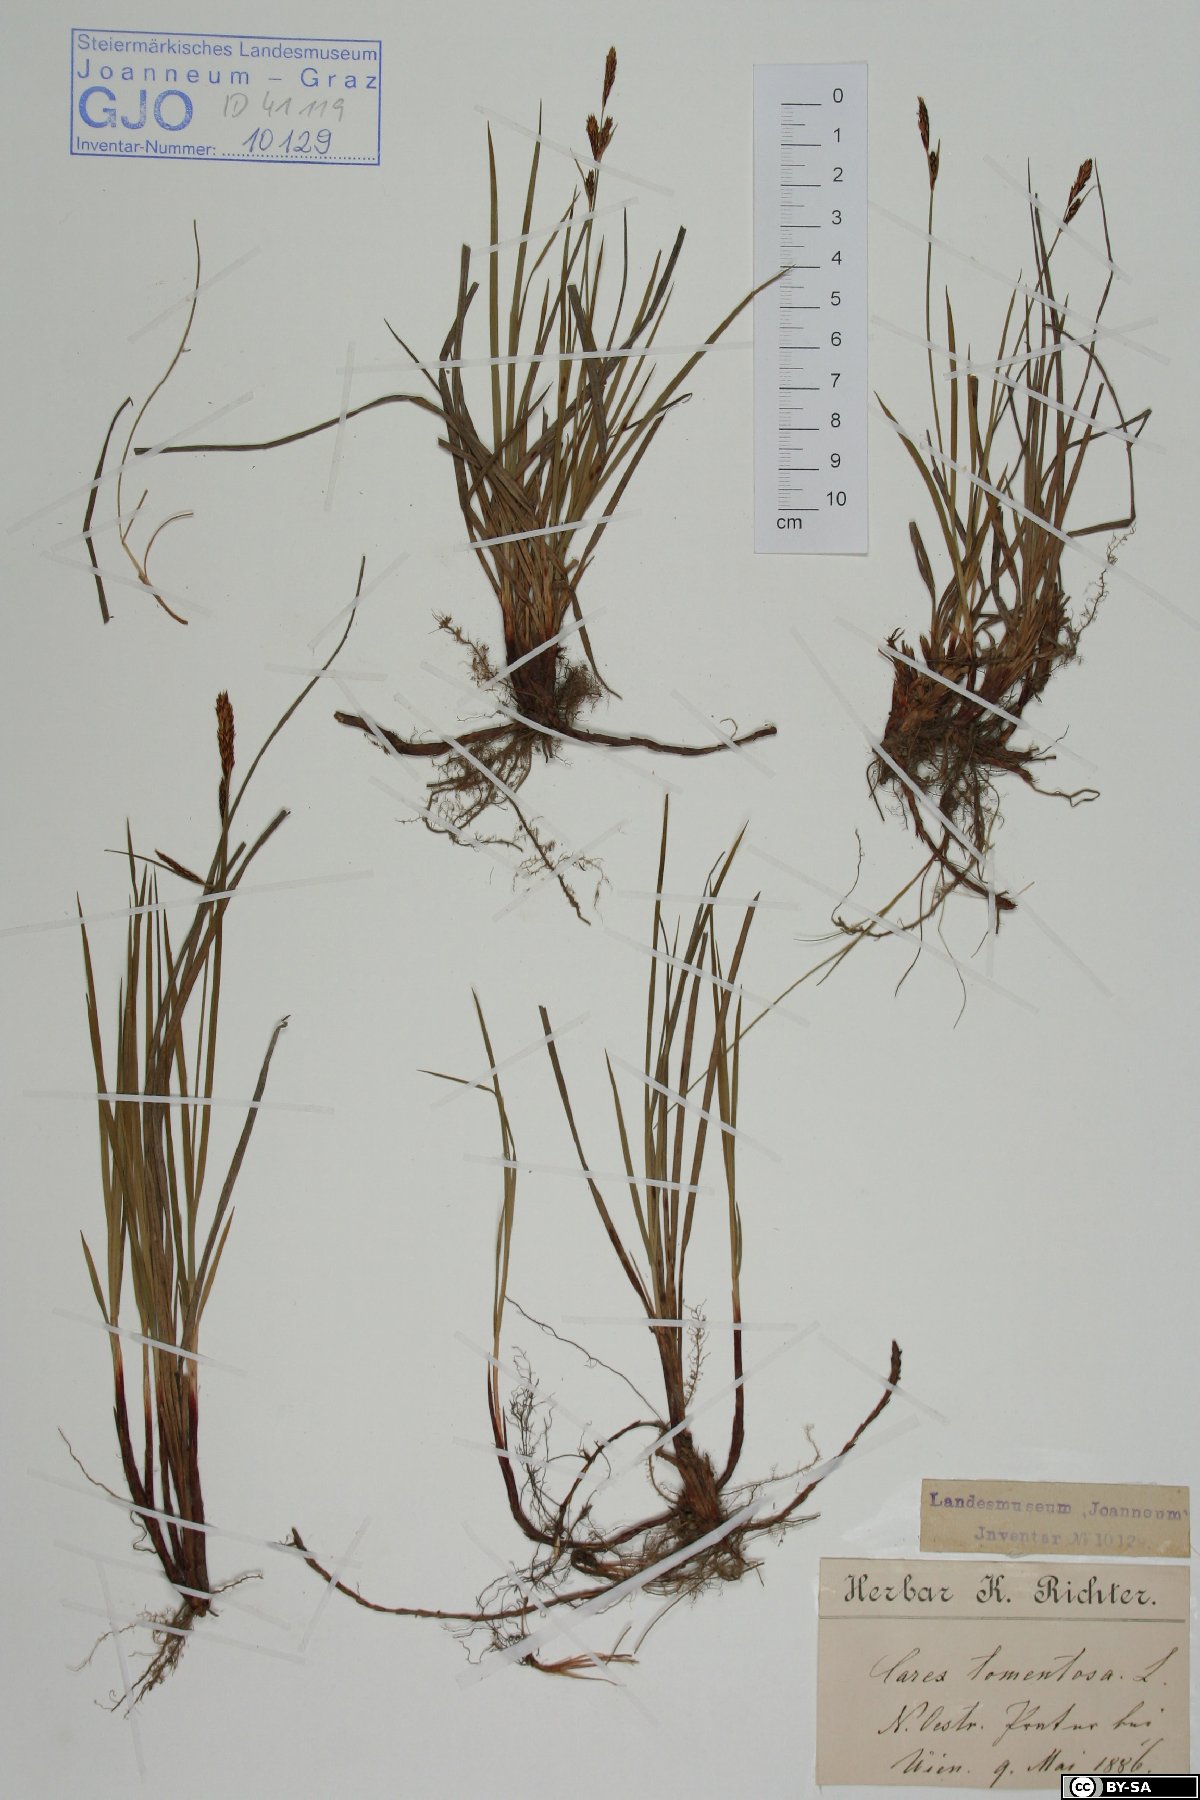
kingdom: Plantae
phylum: Tracheophyta
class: Liliopsida
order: Poales
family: Cyperaceae
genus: Carex
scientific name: Carex tomentosa
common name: Downy-fruited sedge
